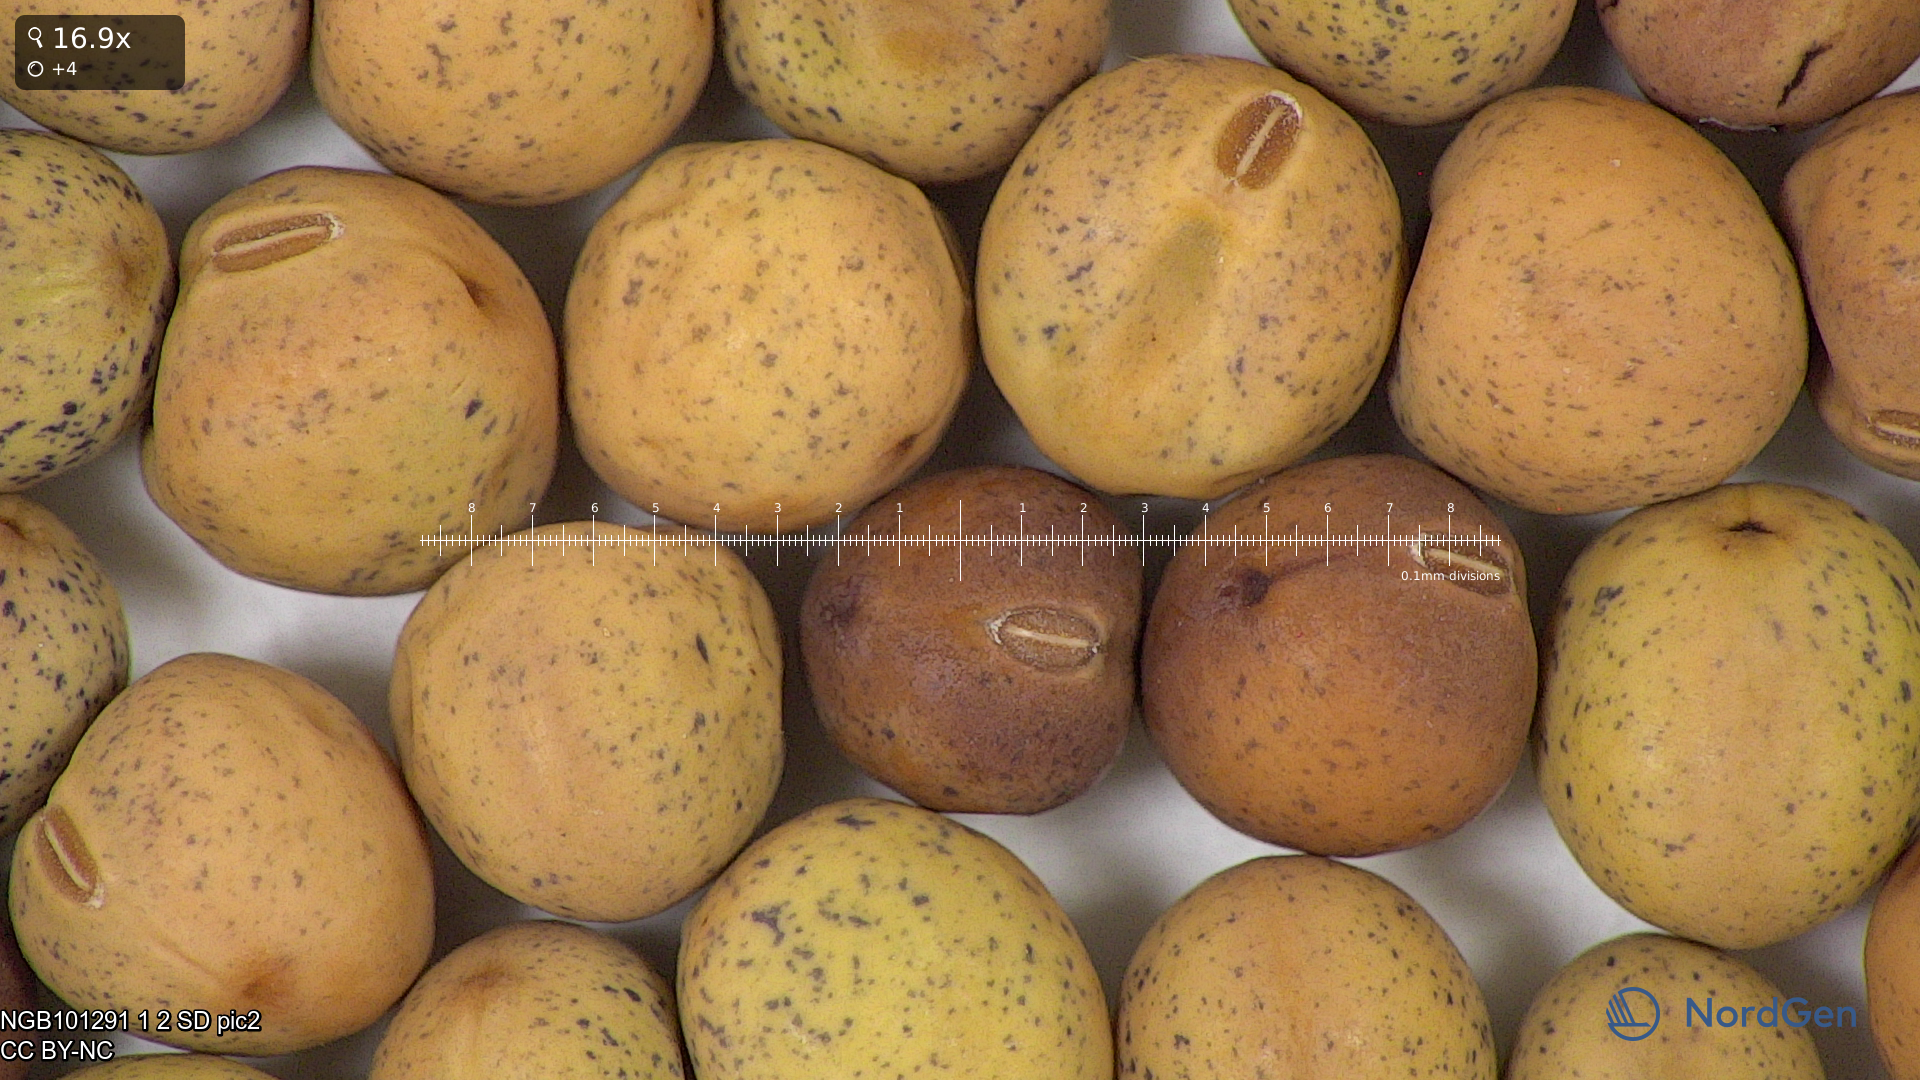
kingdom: Plantae
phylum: Tracheophyta
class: Magnoliopsida
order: Fabales
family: Fabaceae
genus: Lathyrus
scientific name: Lathyrus oleraceus
